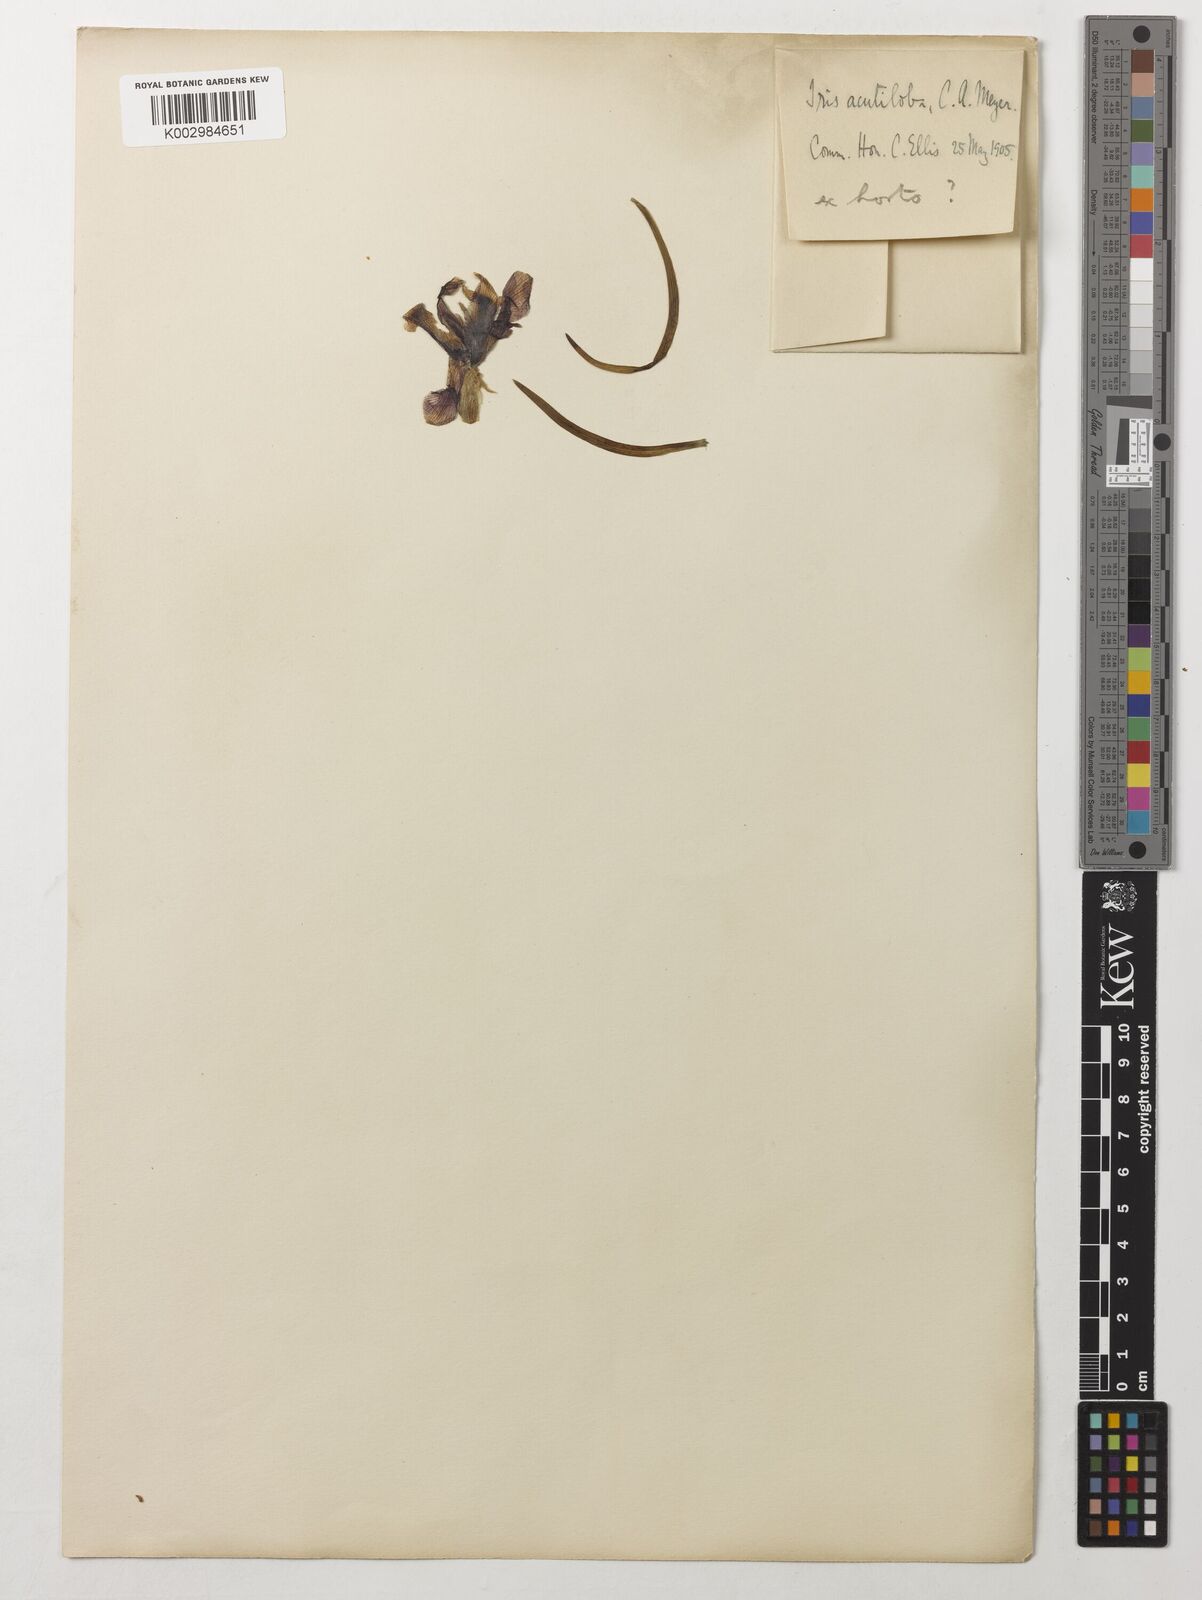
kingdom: Plantae
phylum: Tracheophyta
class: Liliopsida
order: Asparagales
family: Iridaceae
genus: Iris
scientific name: Iris acutiloba
